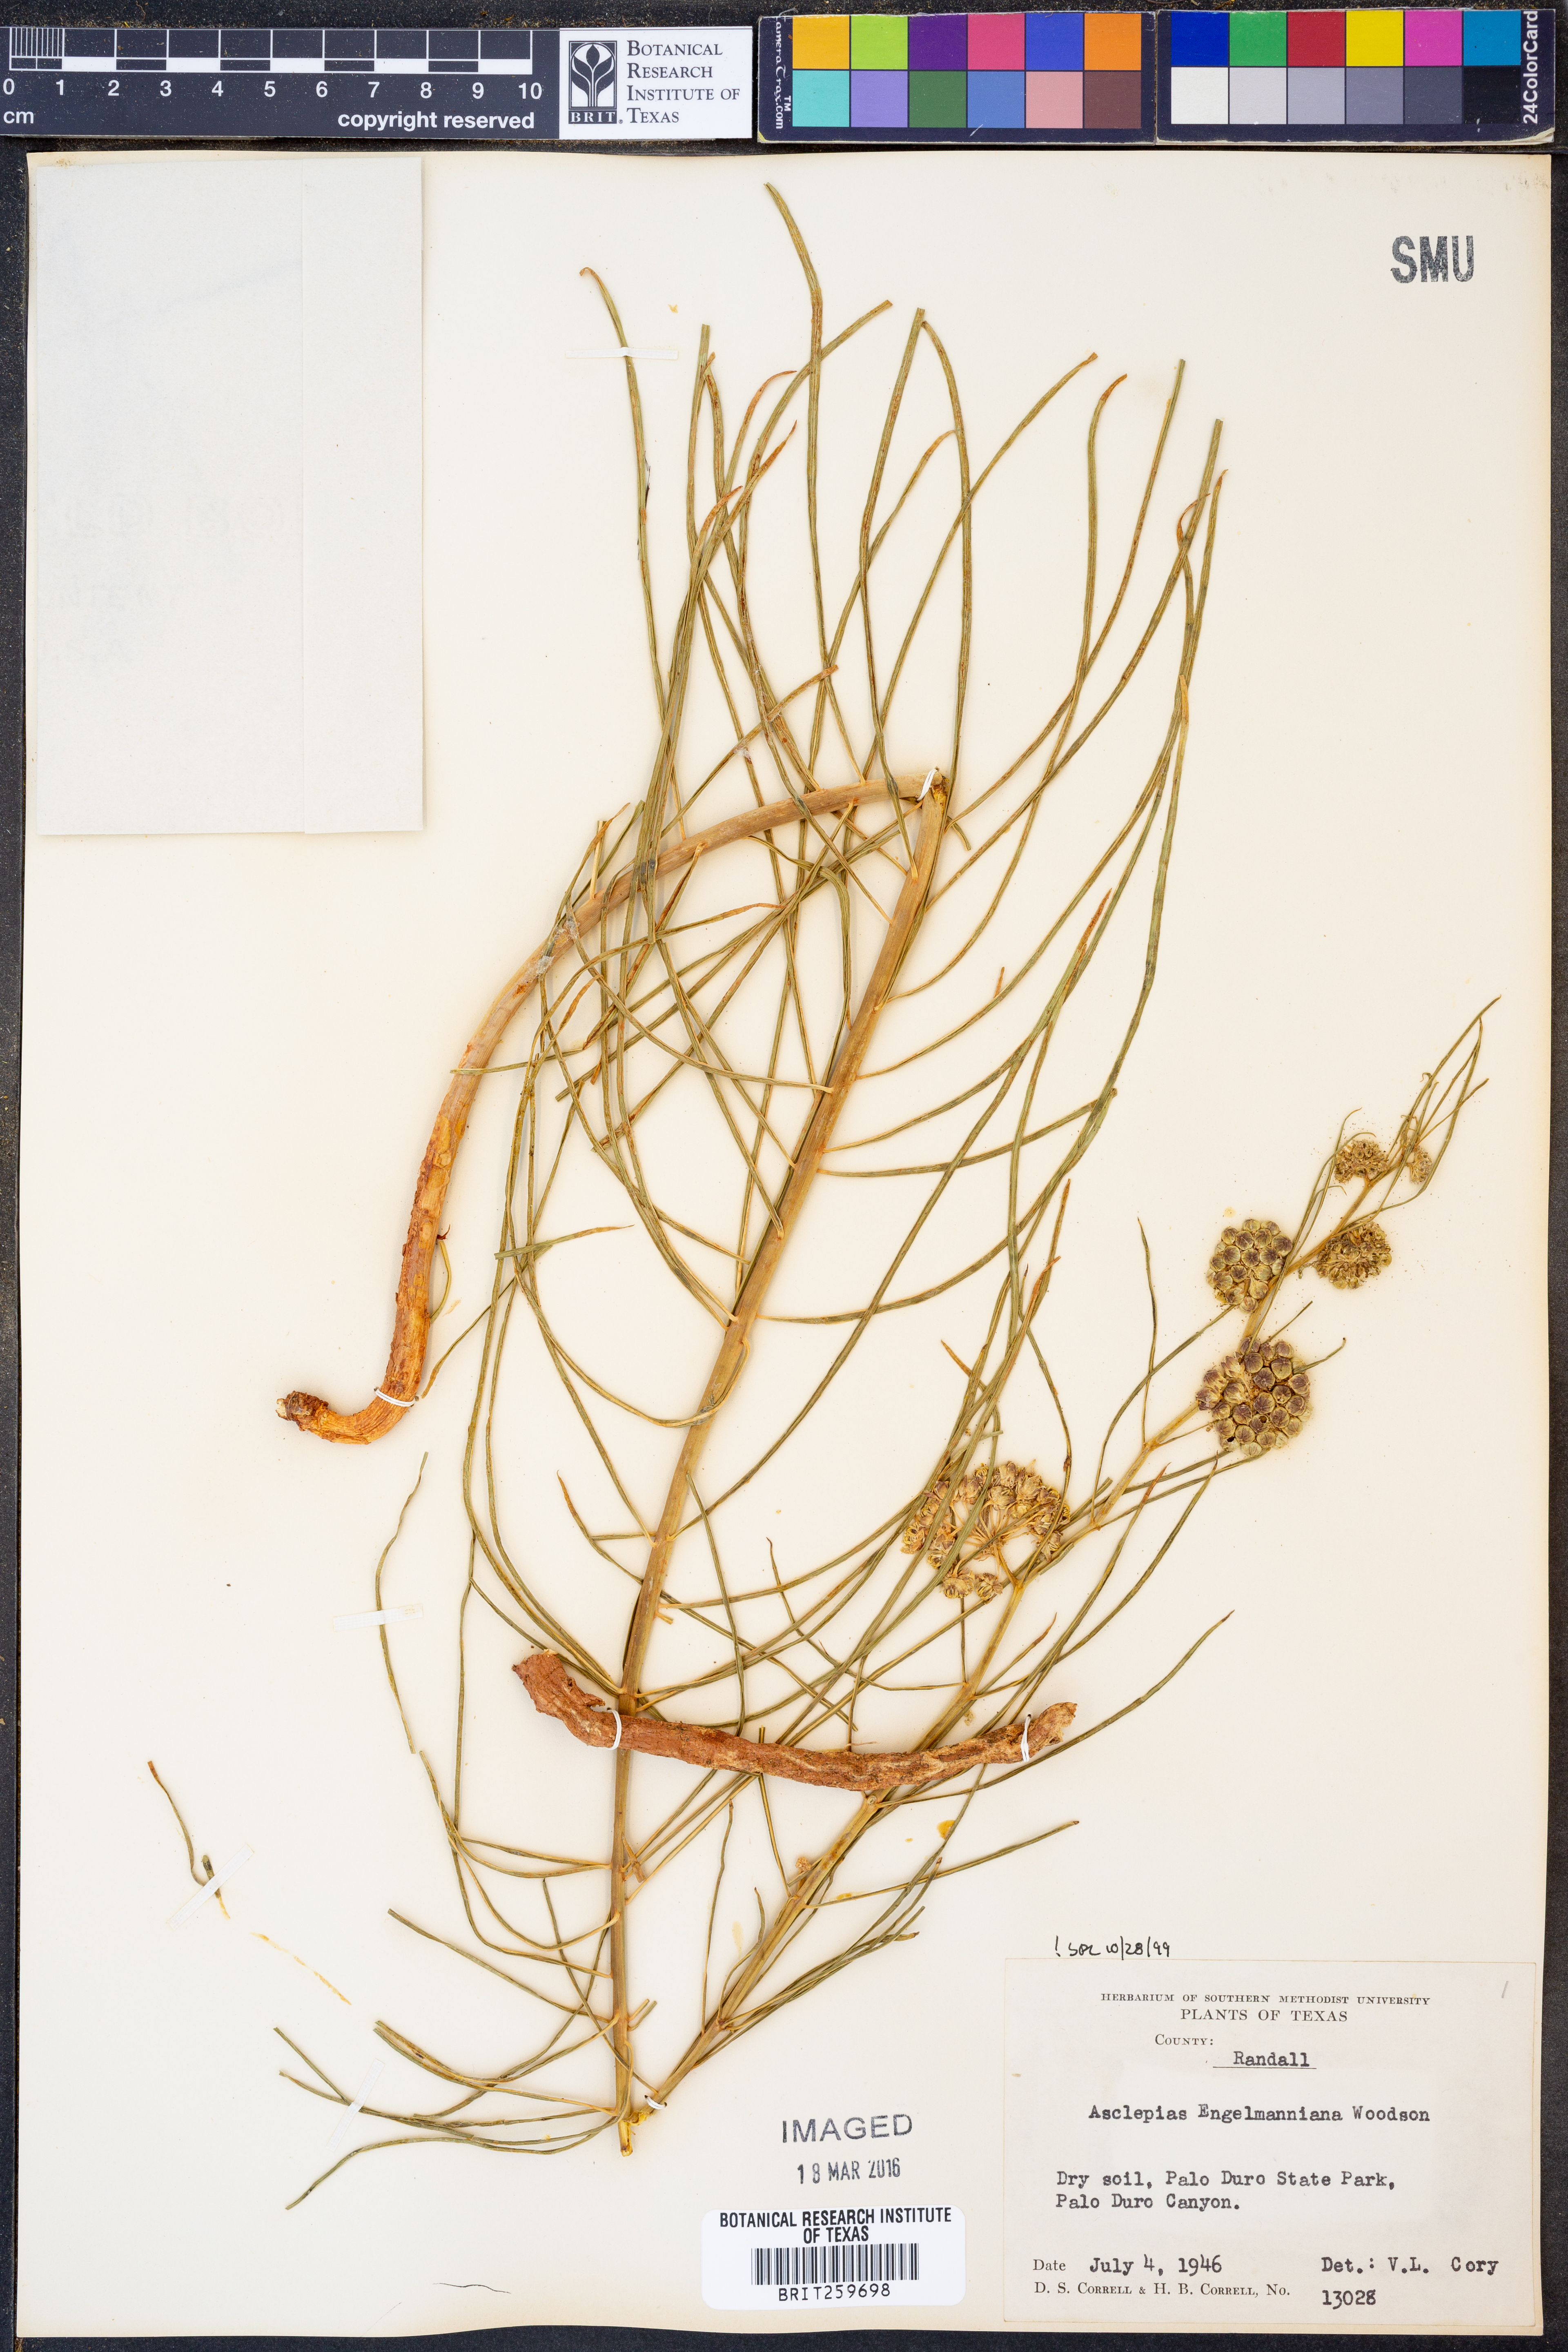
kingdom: Plantae
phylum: Tracheophyta
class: Magnoliopsida
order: Gentianales
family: Apocynaceae
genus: Asclepias
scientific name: Asclepias engelmanniana
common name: Engelmann's milkweed
